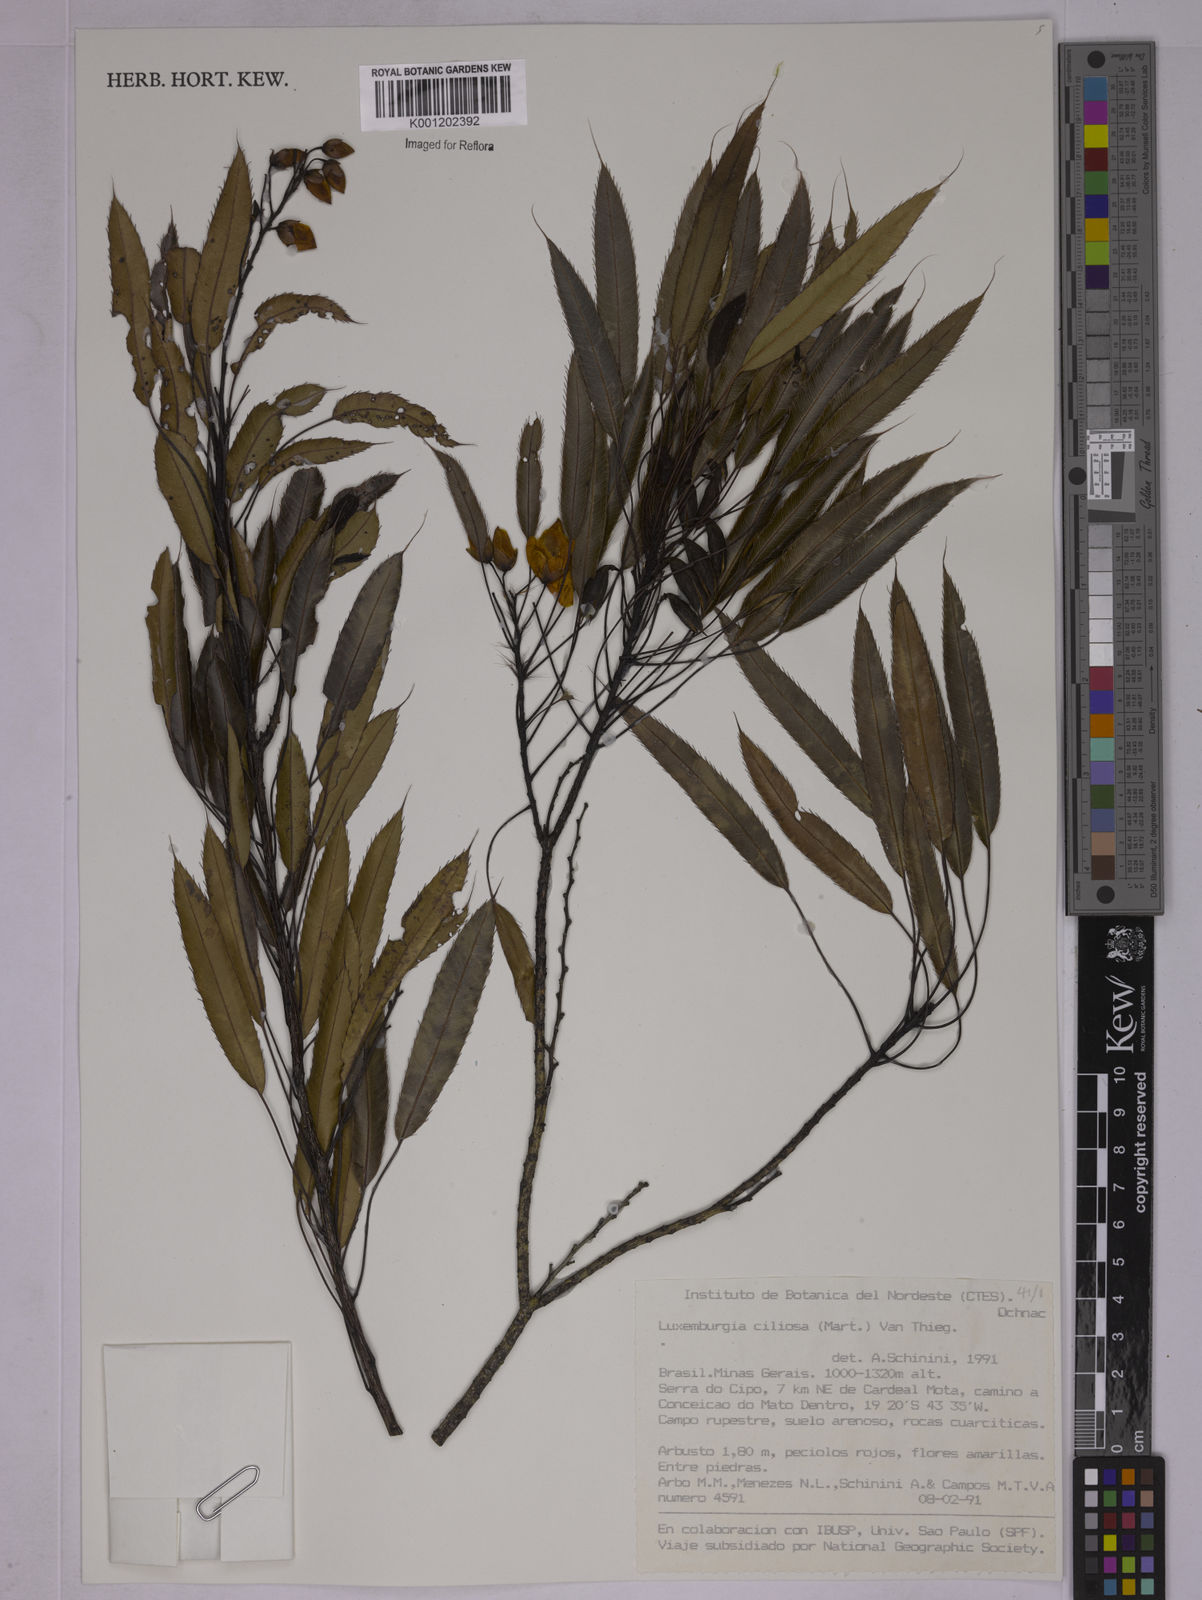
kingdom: Plantae
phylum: Tracheophyta
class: Magnoliopsida
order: Malpighiales
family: Ochnaceae
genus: Luxemburgia
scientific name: Luxemburgia ciliosa
